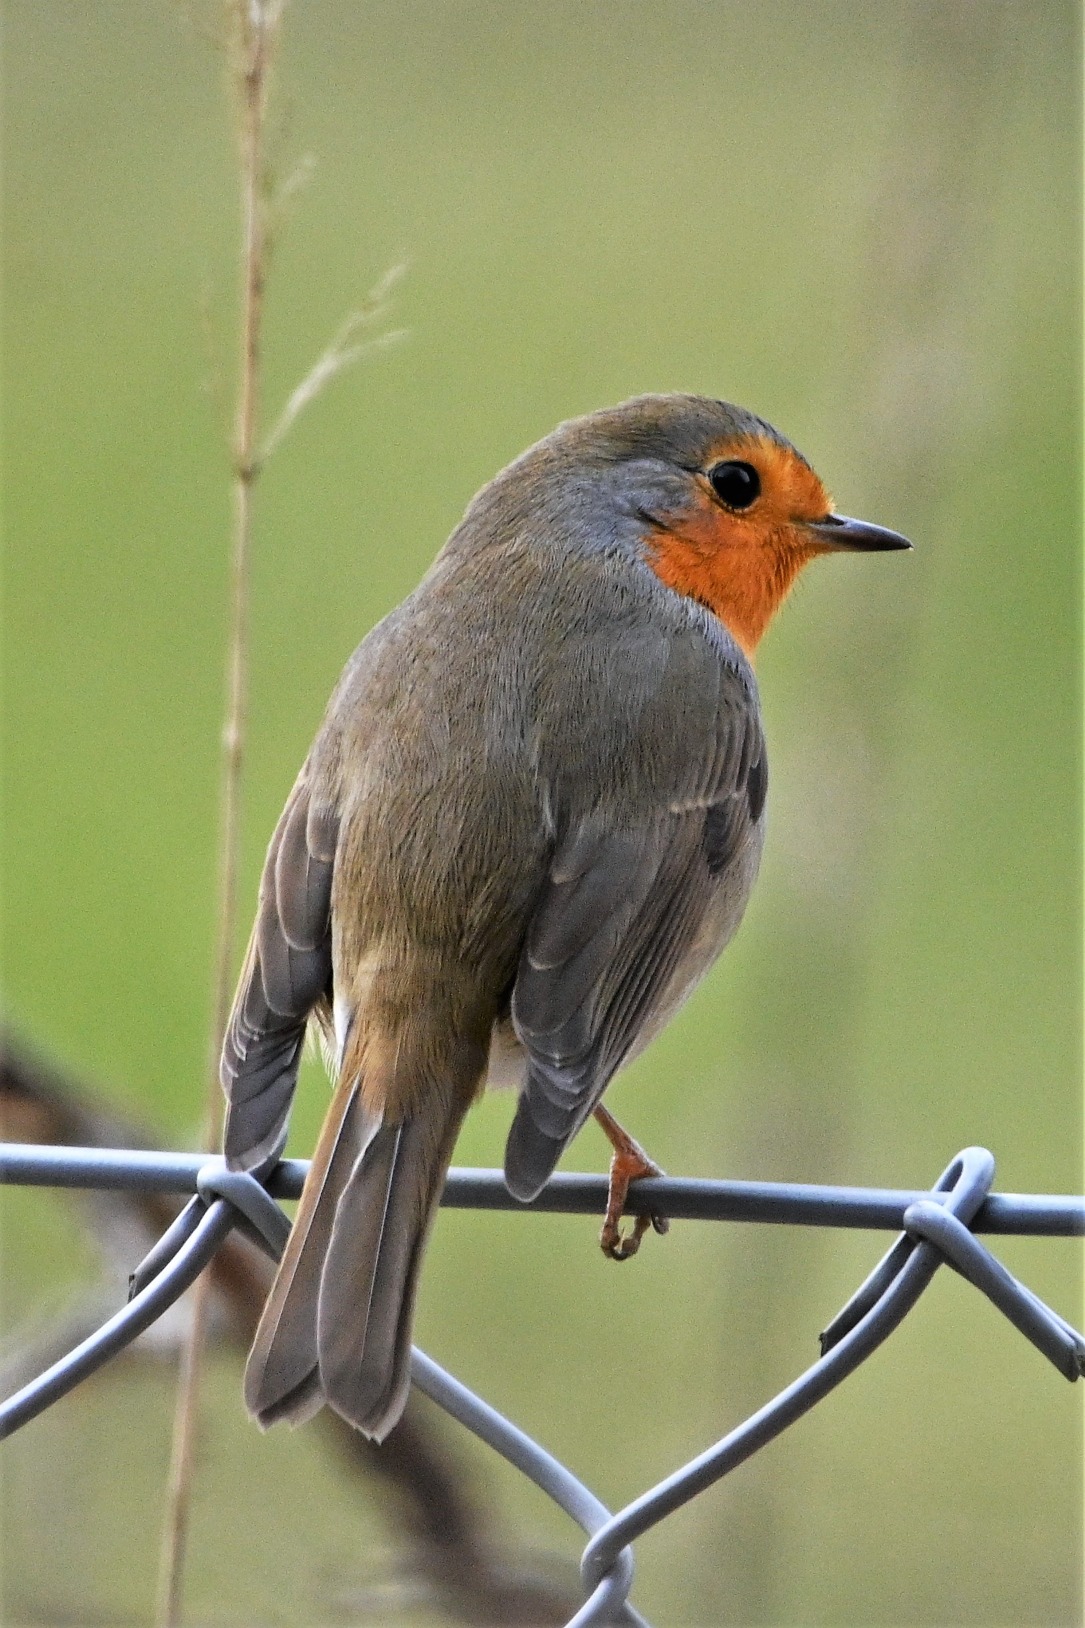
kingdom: Animalia
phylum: Chordata
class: Aves
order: Passeriformes
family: Muscicapidae
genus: Erithacus
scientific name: Erithacus rubecula
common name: Rødhals/rødkælk
